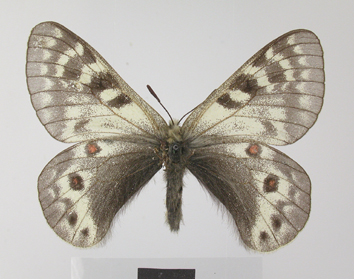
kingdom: Animalia
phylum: Arthropoda
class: Insecta
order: Lepidoptera
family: Papilionidae
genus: Parnassius
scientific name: Parnassius staudingeri
